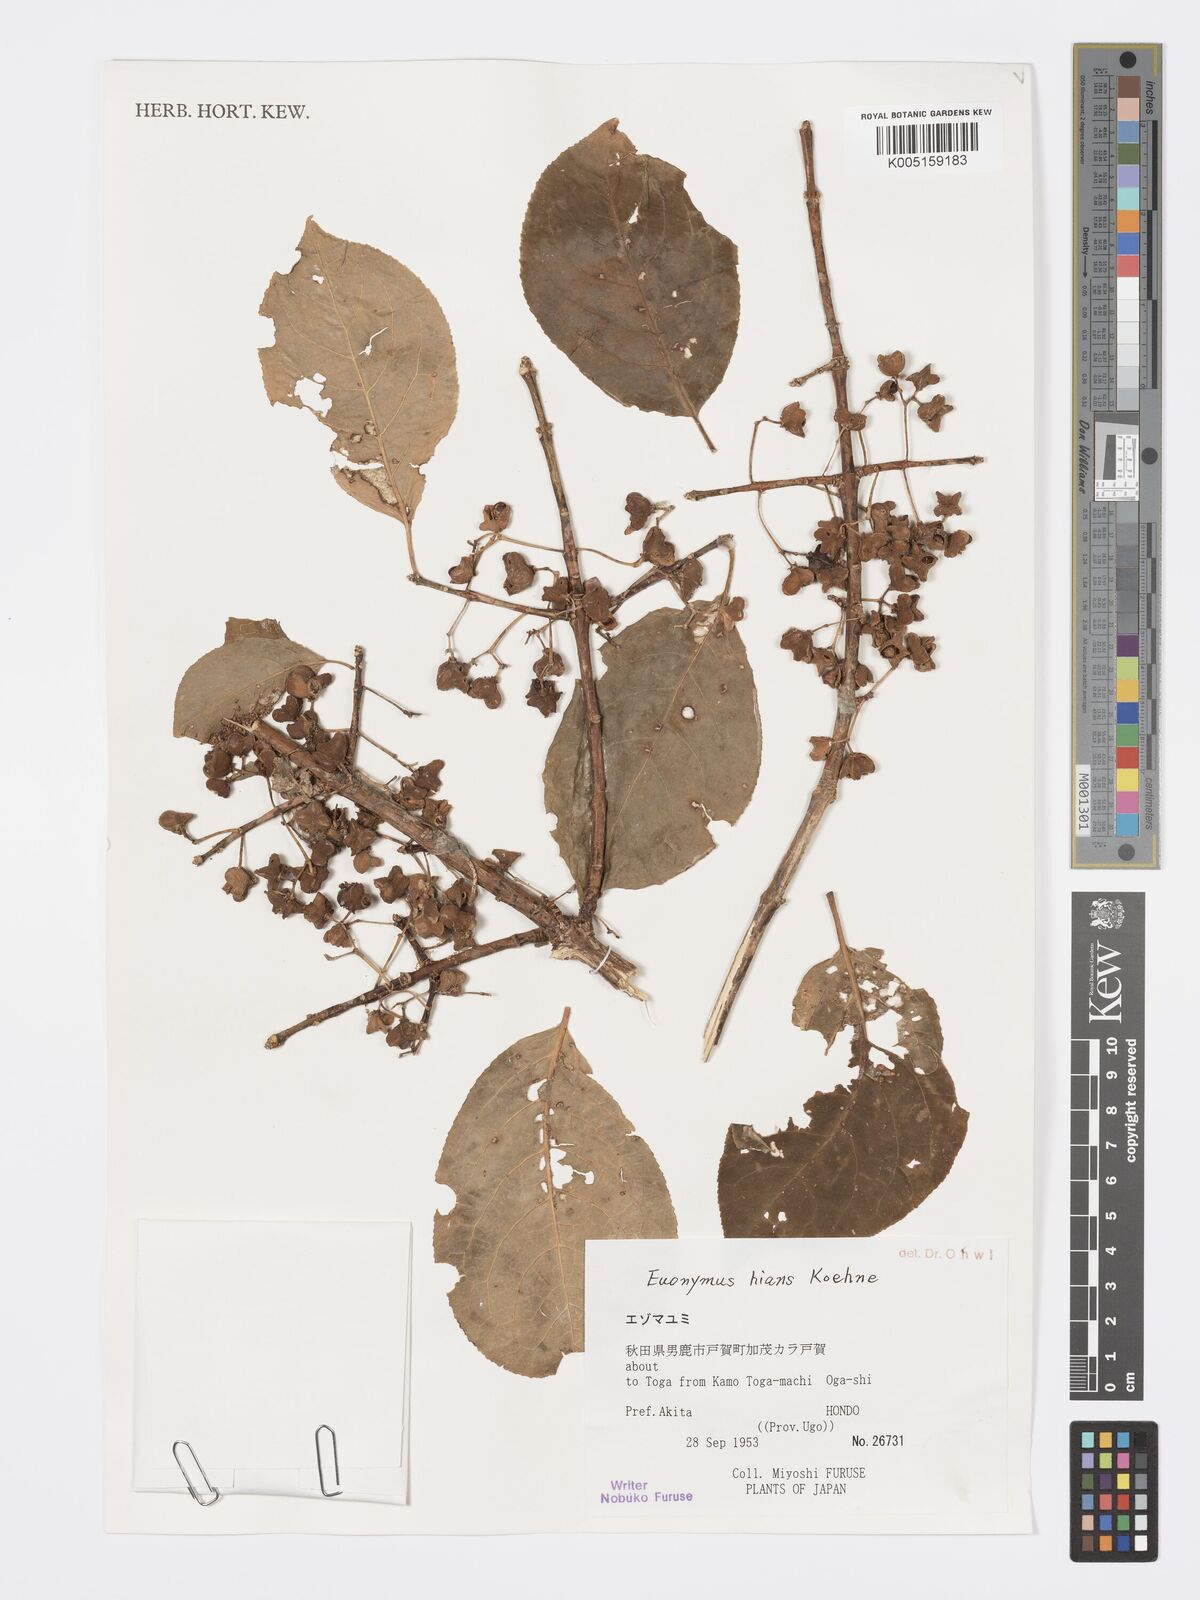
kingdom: Plantae
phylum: Tracheophyta
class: Magnoliopsida
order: Celastrales
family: Celastraceae
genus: Euonymus
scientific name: Euonymus hamiltonianus
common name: Hamilton's spindletree
